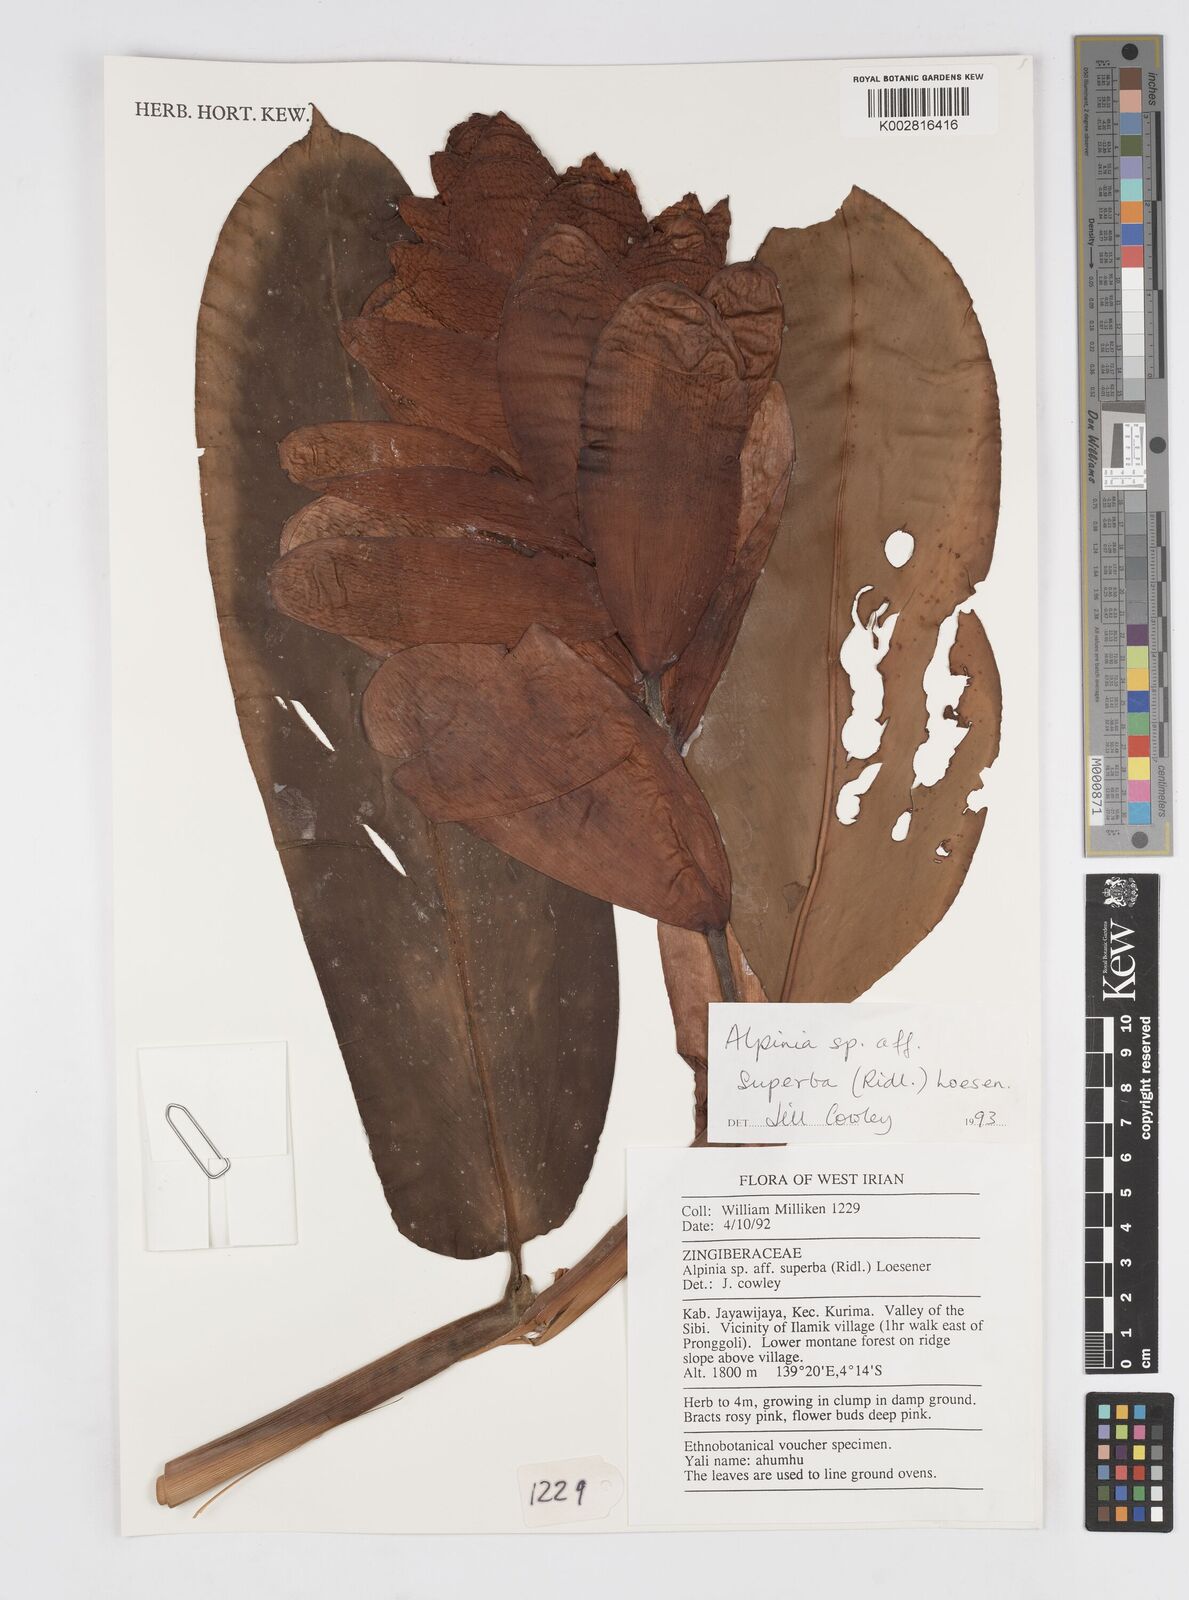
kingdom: Plantae
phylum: Tracheophyta
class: Liliopsida
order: Zingiberales
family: Zingiberaceae
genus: Alpinia
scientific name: Alpinia superba
